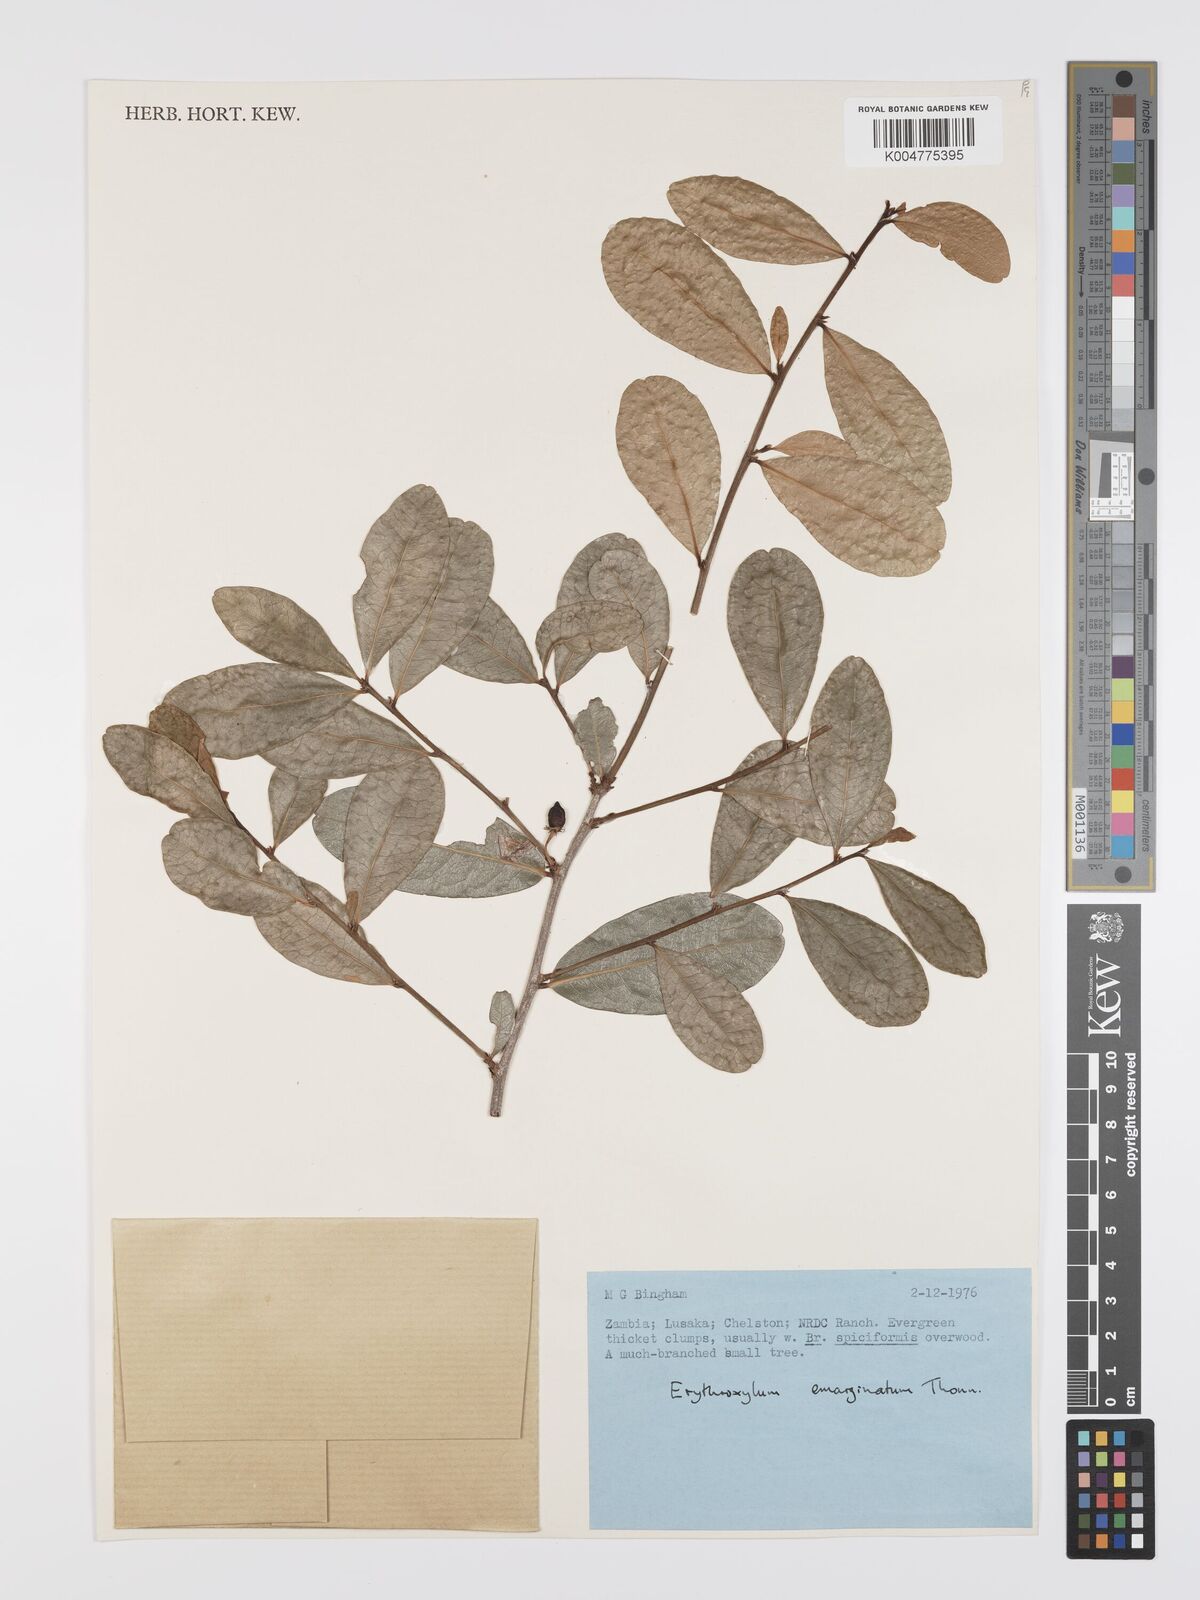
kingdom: Plantae
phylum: Tracheophyta
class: Magnoliopsida
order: Malpighiales
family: Erythroxylaceae
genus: Erythroxylum
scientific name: Erythroxylum emarginatum
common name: African coca-tree
